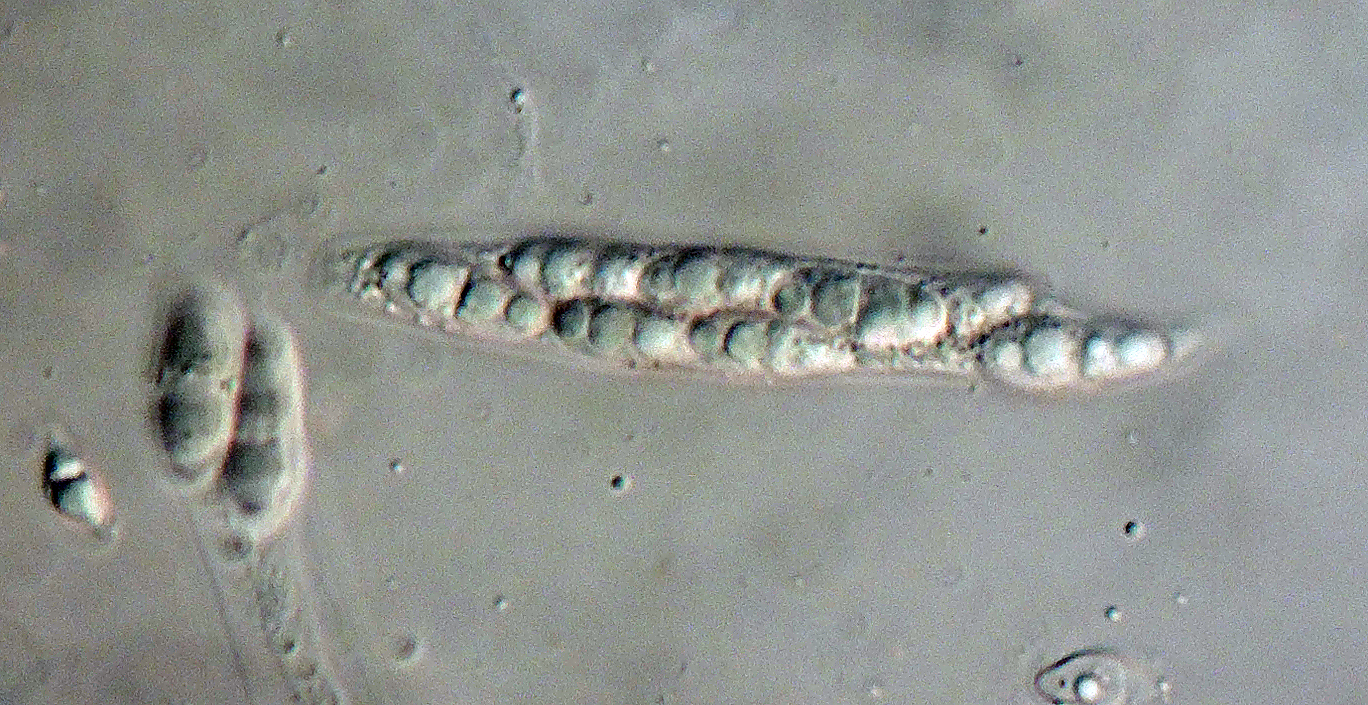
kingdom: Fungi
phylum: Ascomycota
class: Sordariomycetes
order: Diaporthales
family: Diaporthaceae
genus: Diaporthe
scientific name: Diaporthe detrusa
